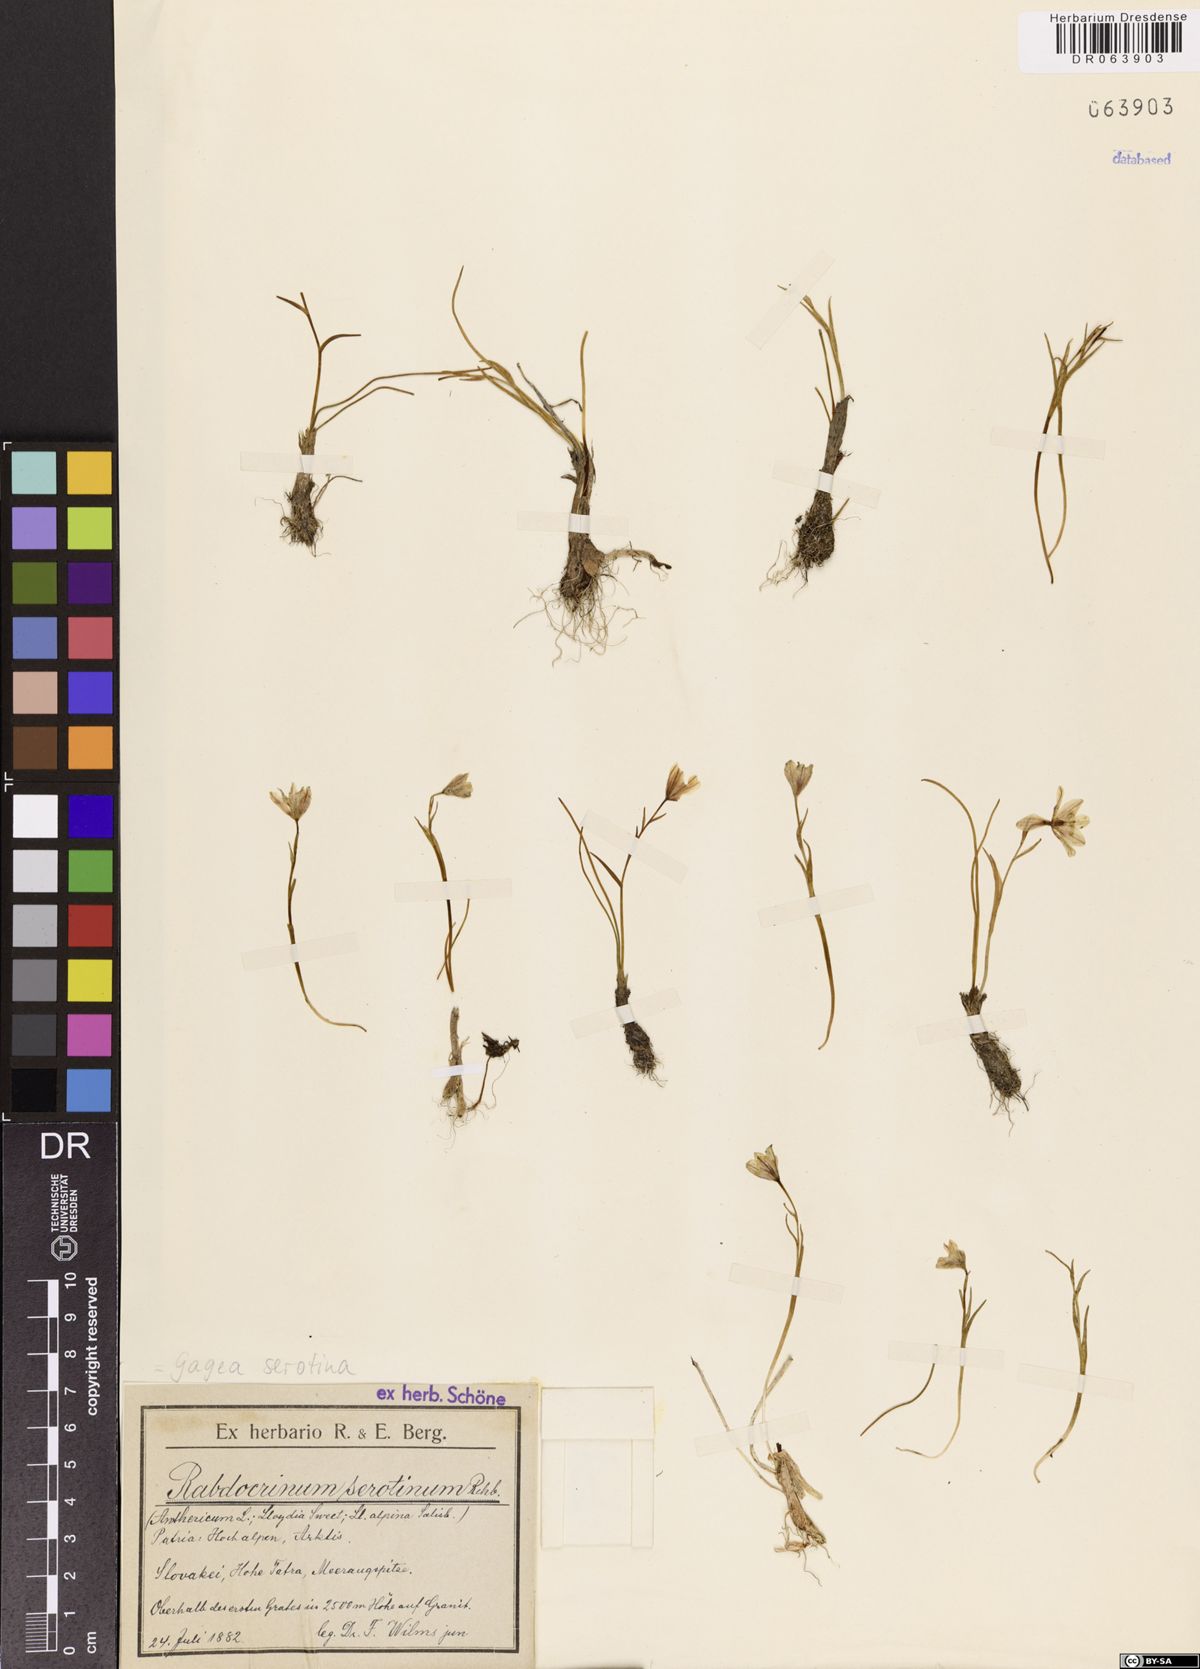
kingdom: Plantae
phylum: Tracheophyta
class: Liliopsida
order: Liliales
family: Liliaceae
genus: Gagea
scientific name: Gagea serotina
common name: Snowdon lily
